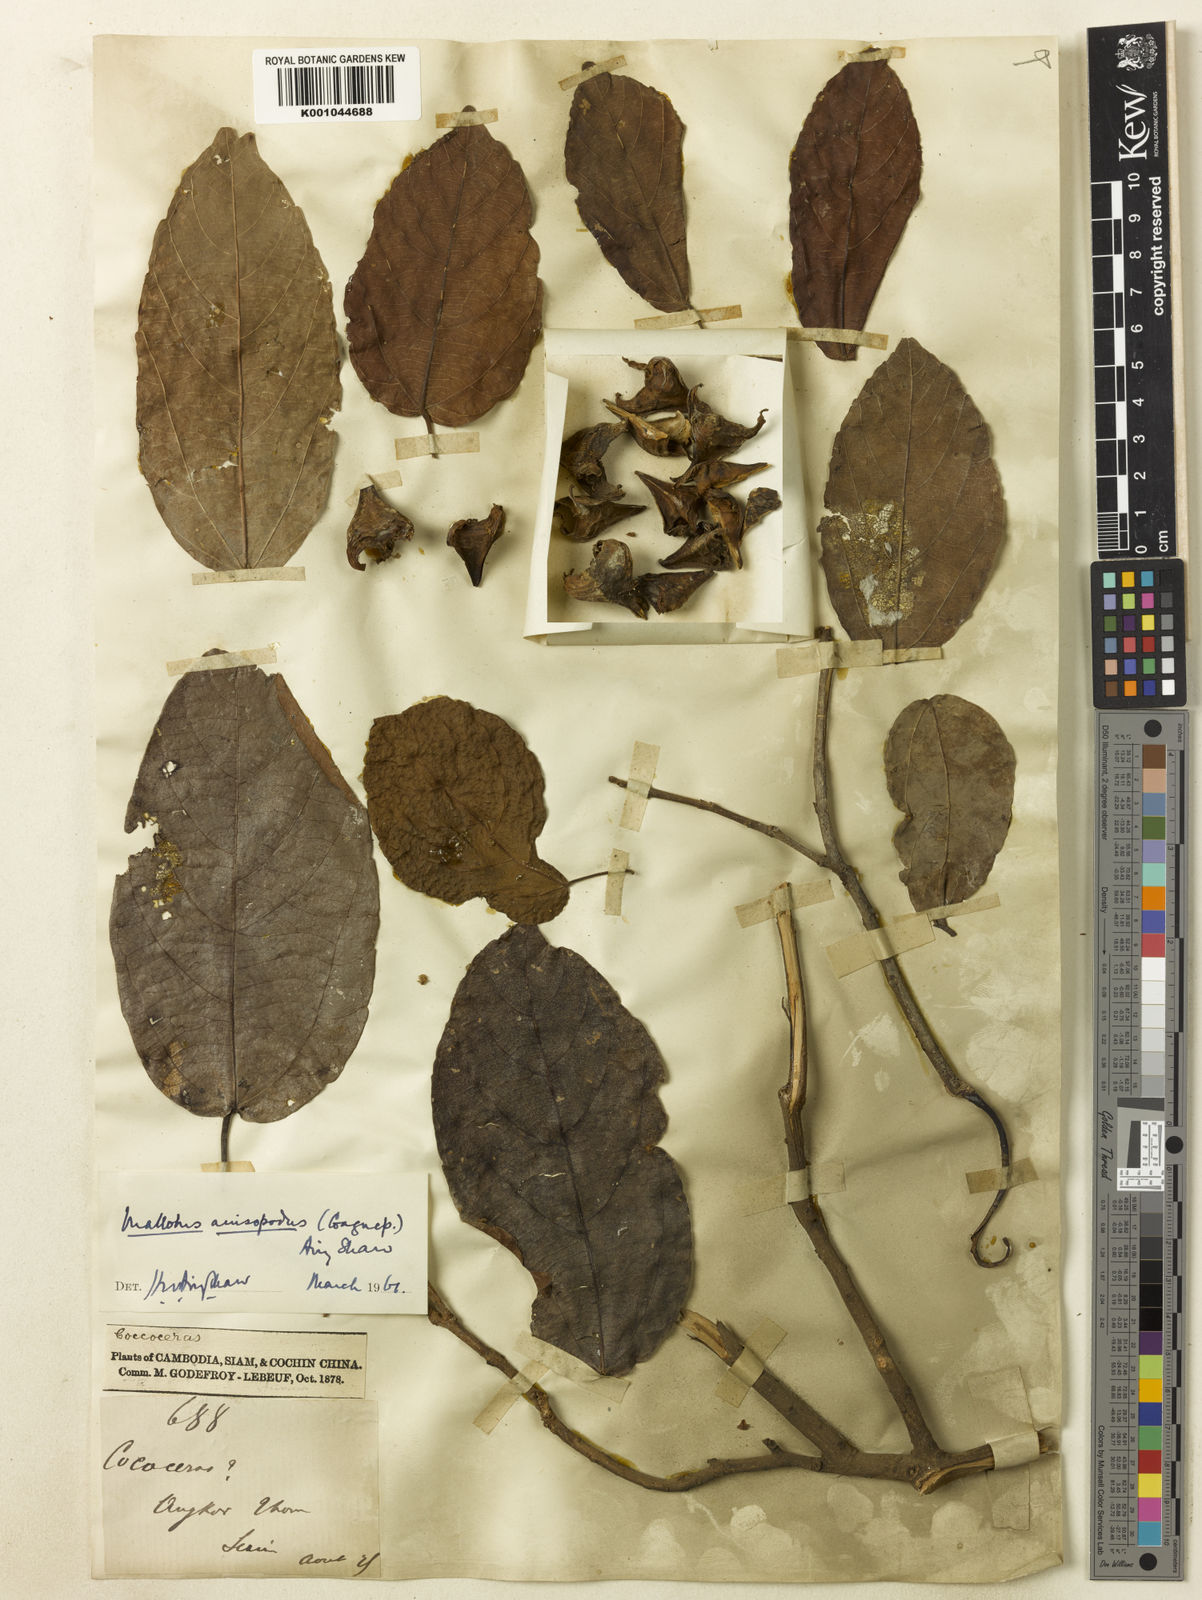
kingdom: Plantae
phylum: Tracheophyta
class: Magnoliopsida
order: Malpighiales
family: Euphorbiaceae
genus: Mallotus
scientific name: Mallotus plicatus
